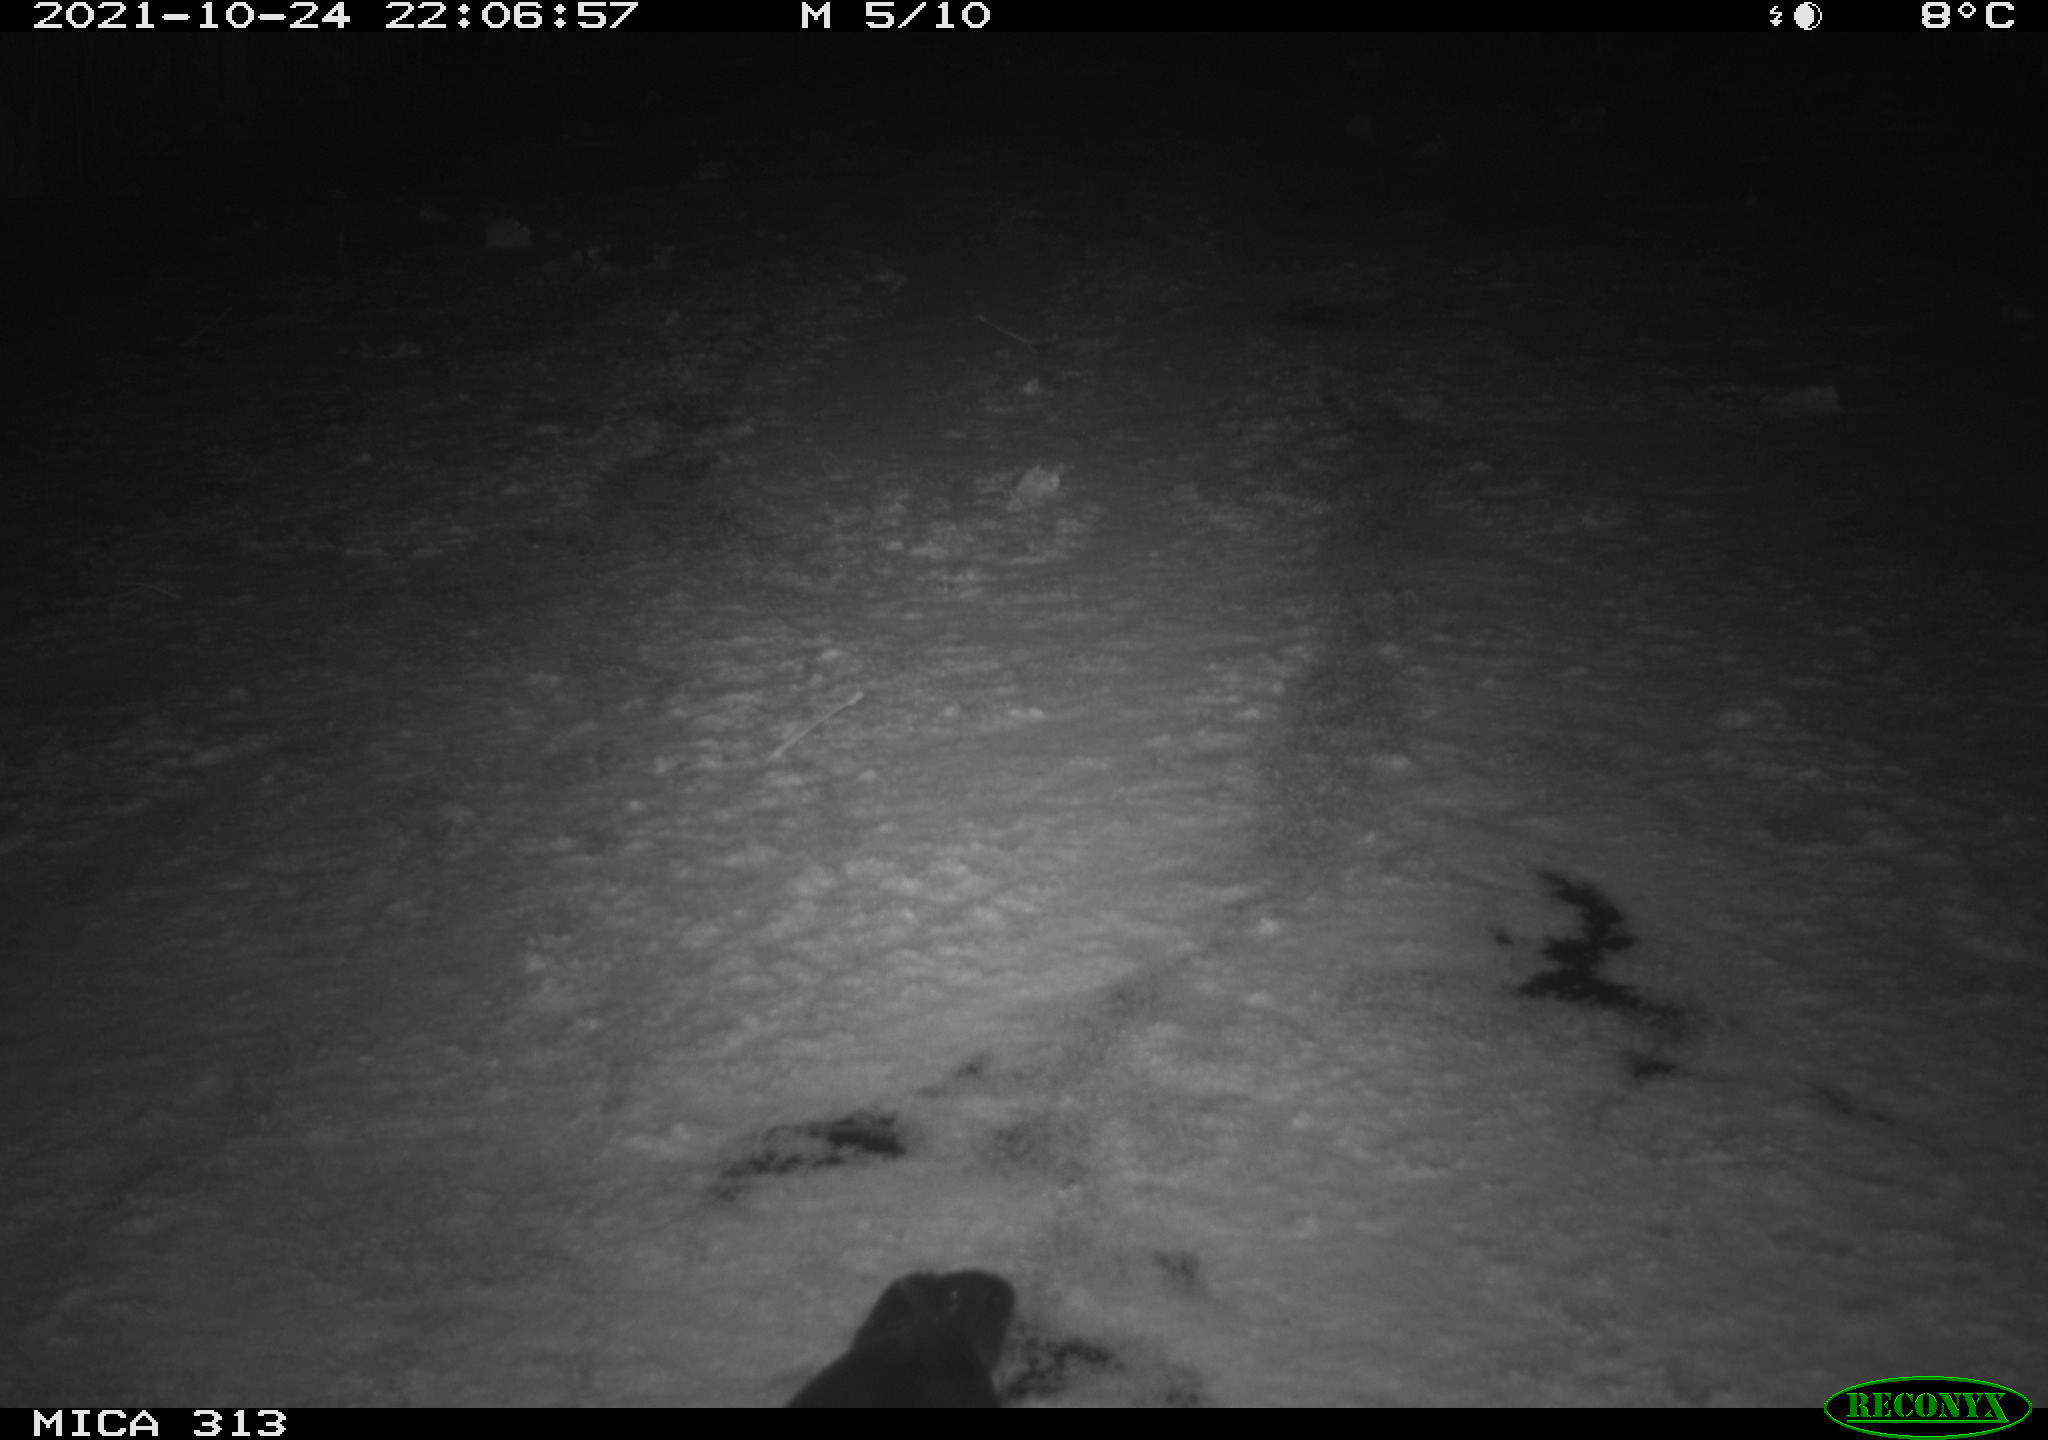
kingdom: Animalia
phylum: Chordata
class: Aves
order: Gruiformes
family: Rallidae
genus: Fulica
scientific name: Fulica atra
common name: Eurasian coot
